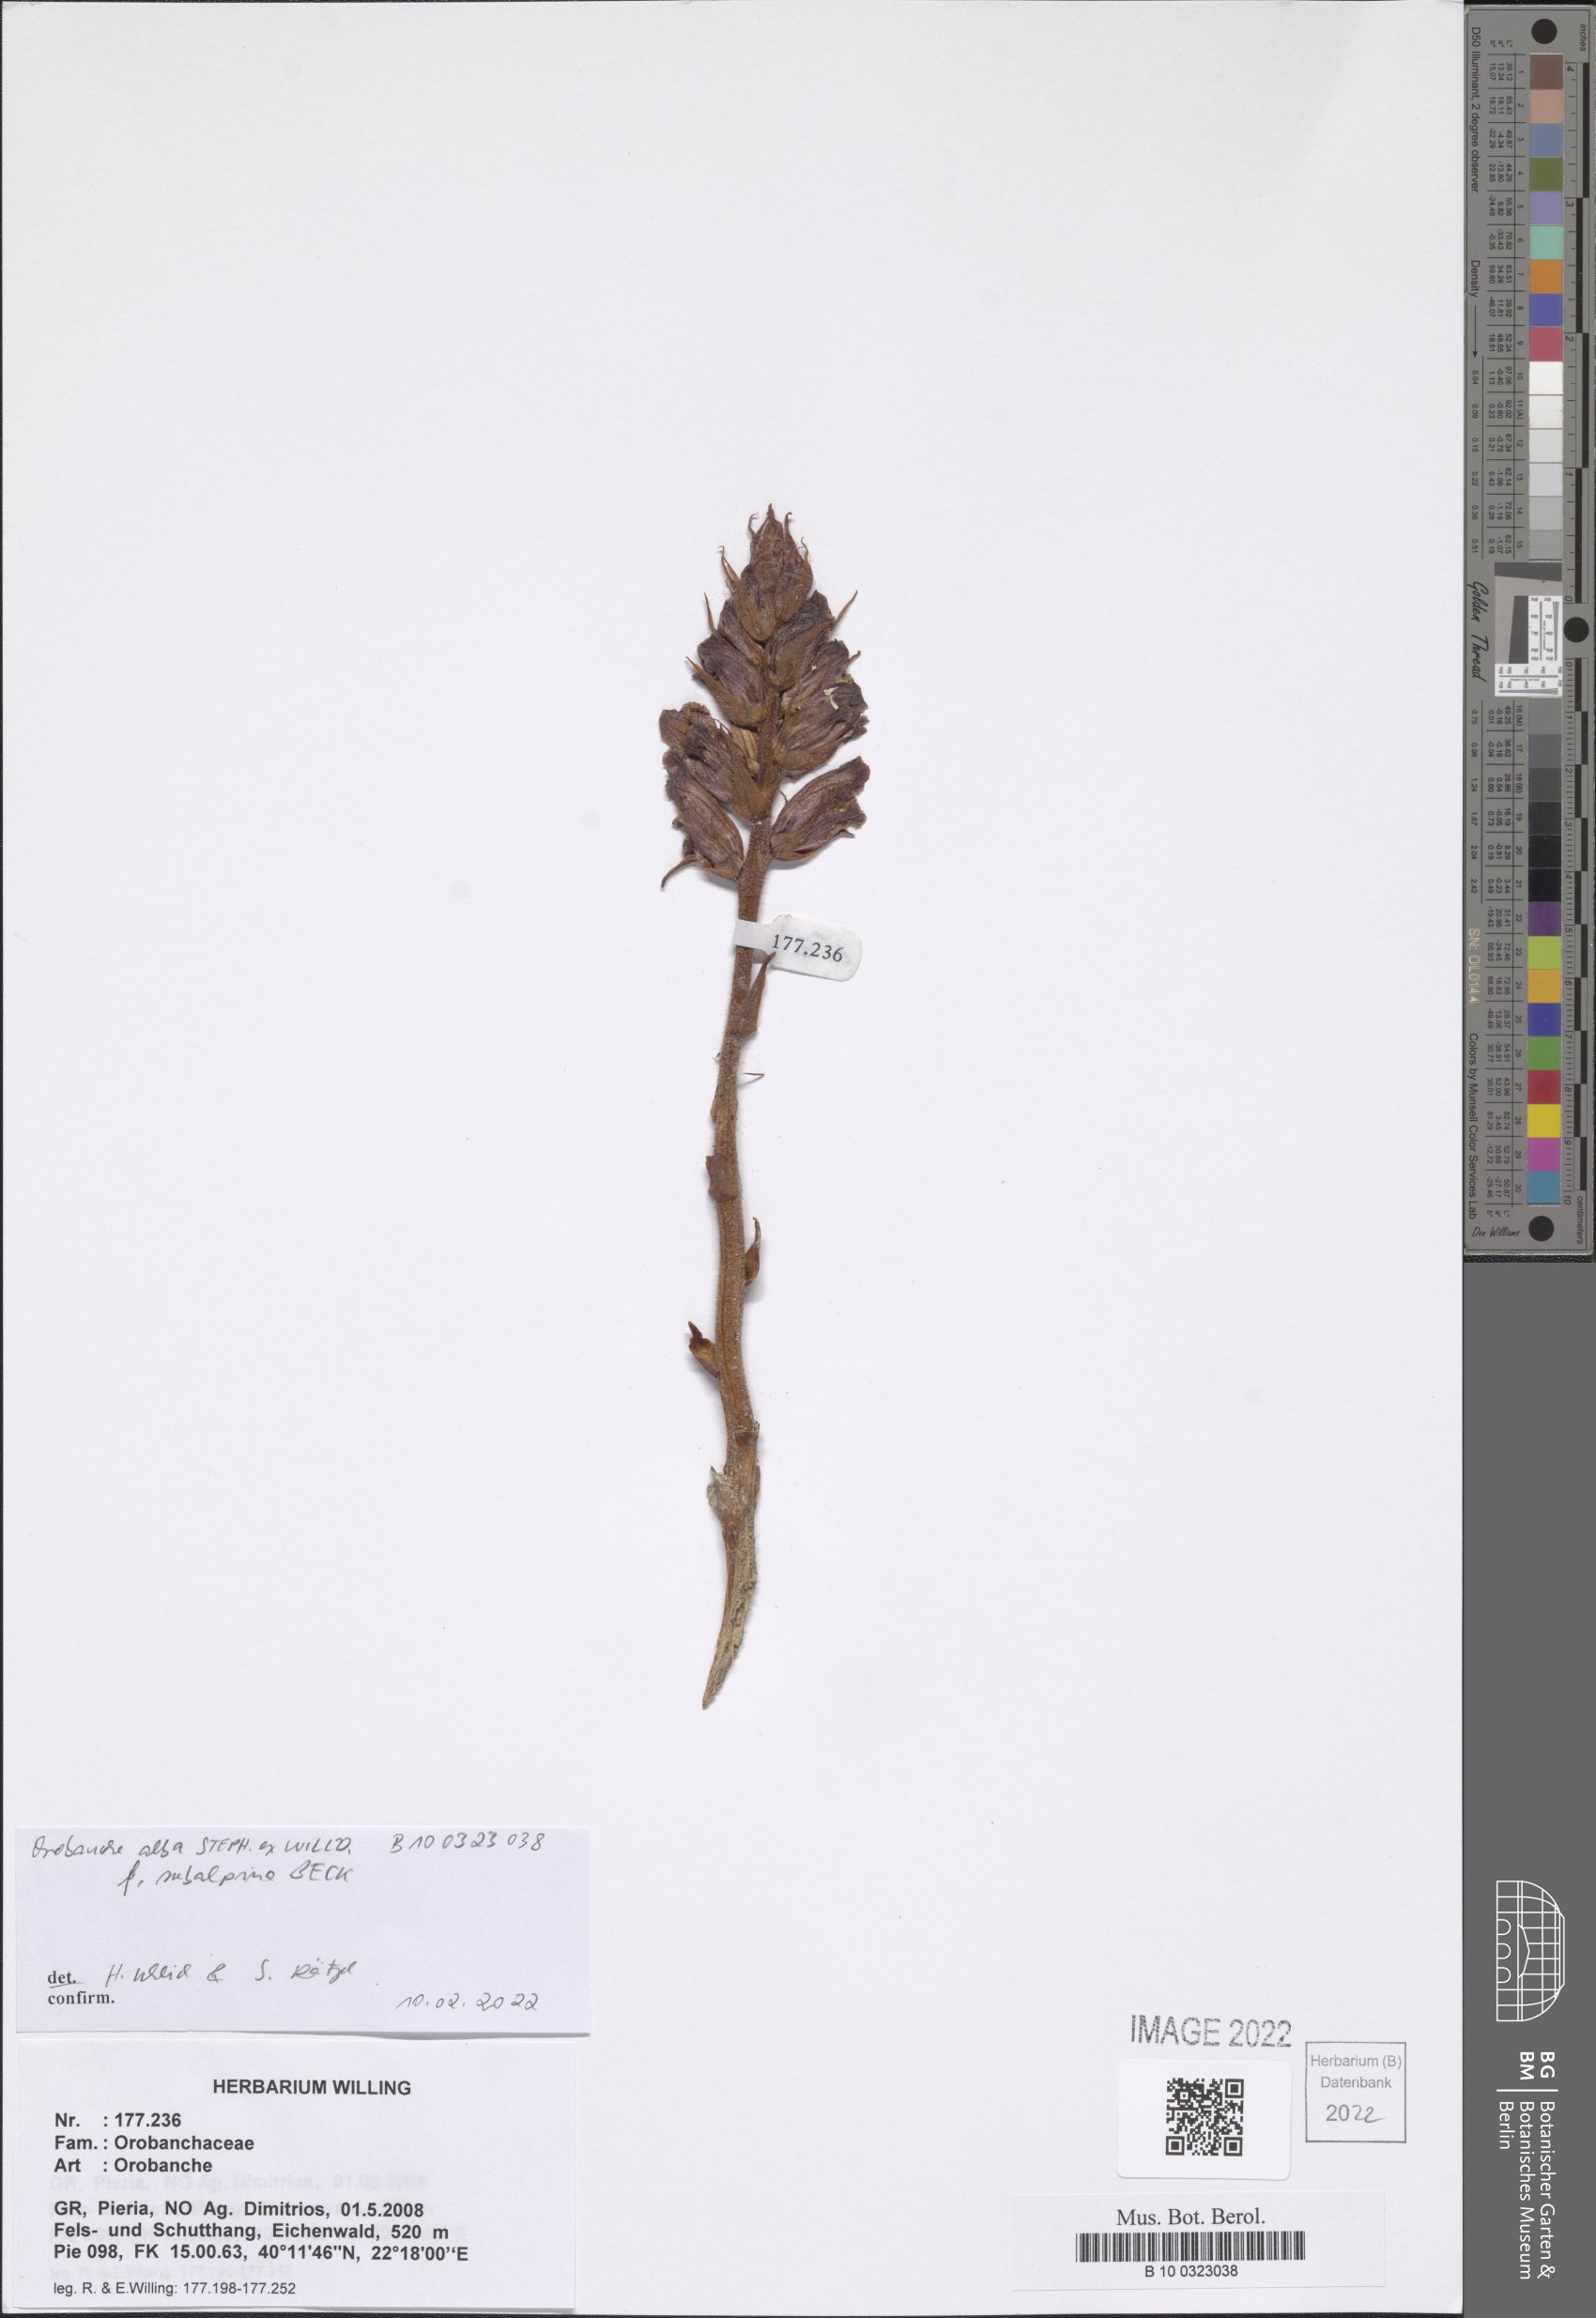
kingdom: Plantae
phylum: Tracheophyta
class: Magnoliopsida
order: Lamiales
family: Orobanchaceae
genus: Orobanche
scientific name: Orobanche alba
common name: Thyme broomrape
